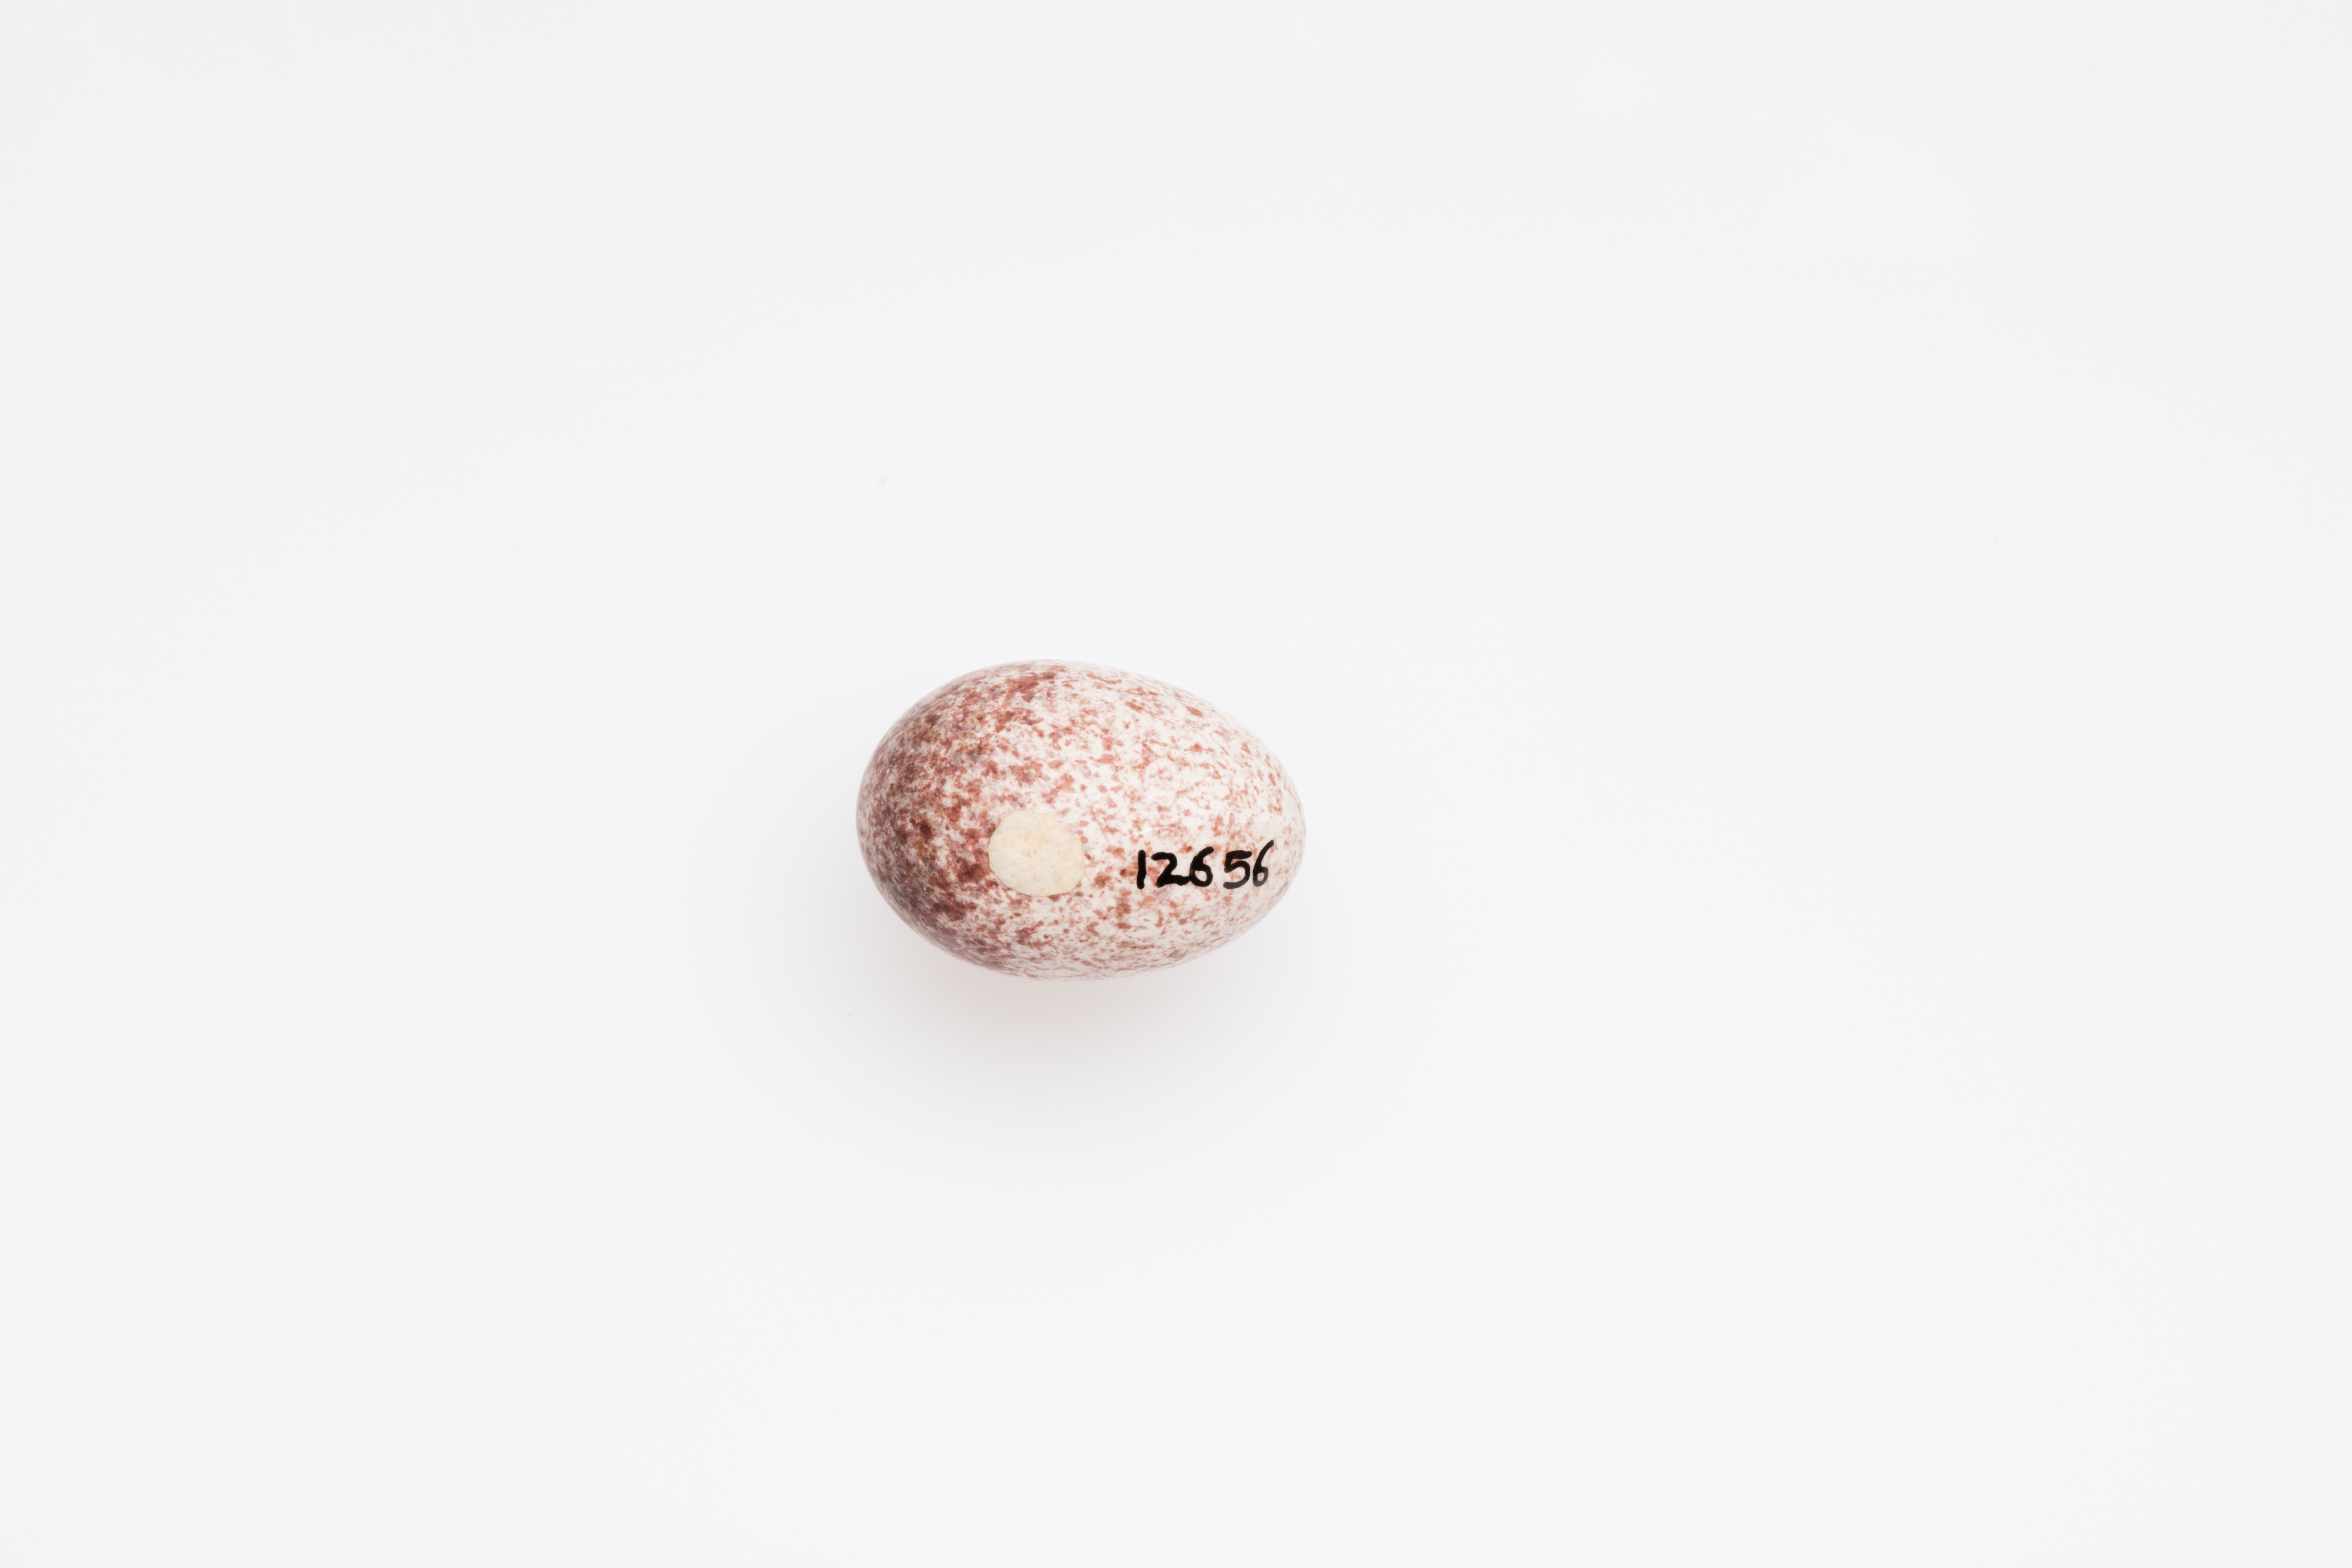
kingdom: Animalia
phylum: Chordata
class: Aves
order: Passeriformes
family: Locustellidae
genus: Megalurus
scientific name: Megalurus gramineus
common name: Little grassbird
